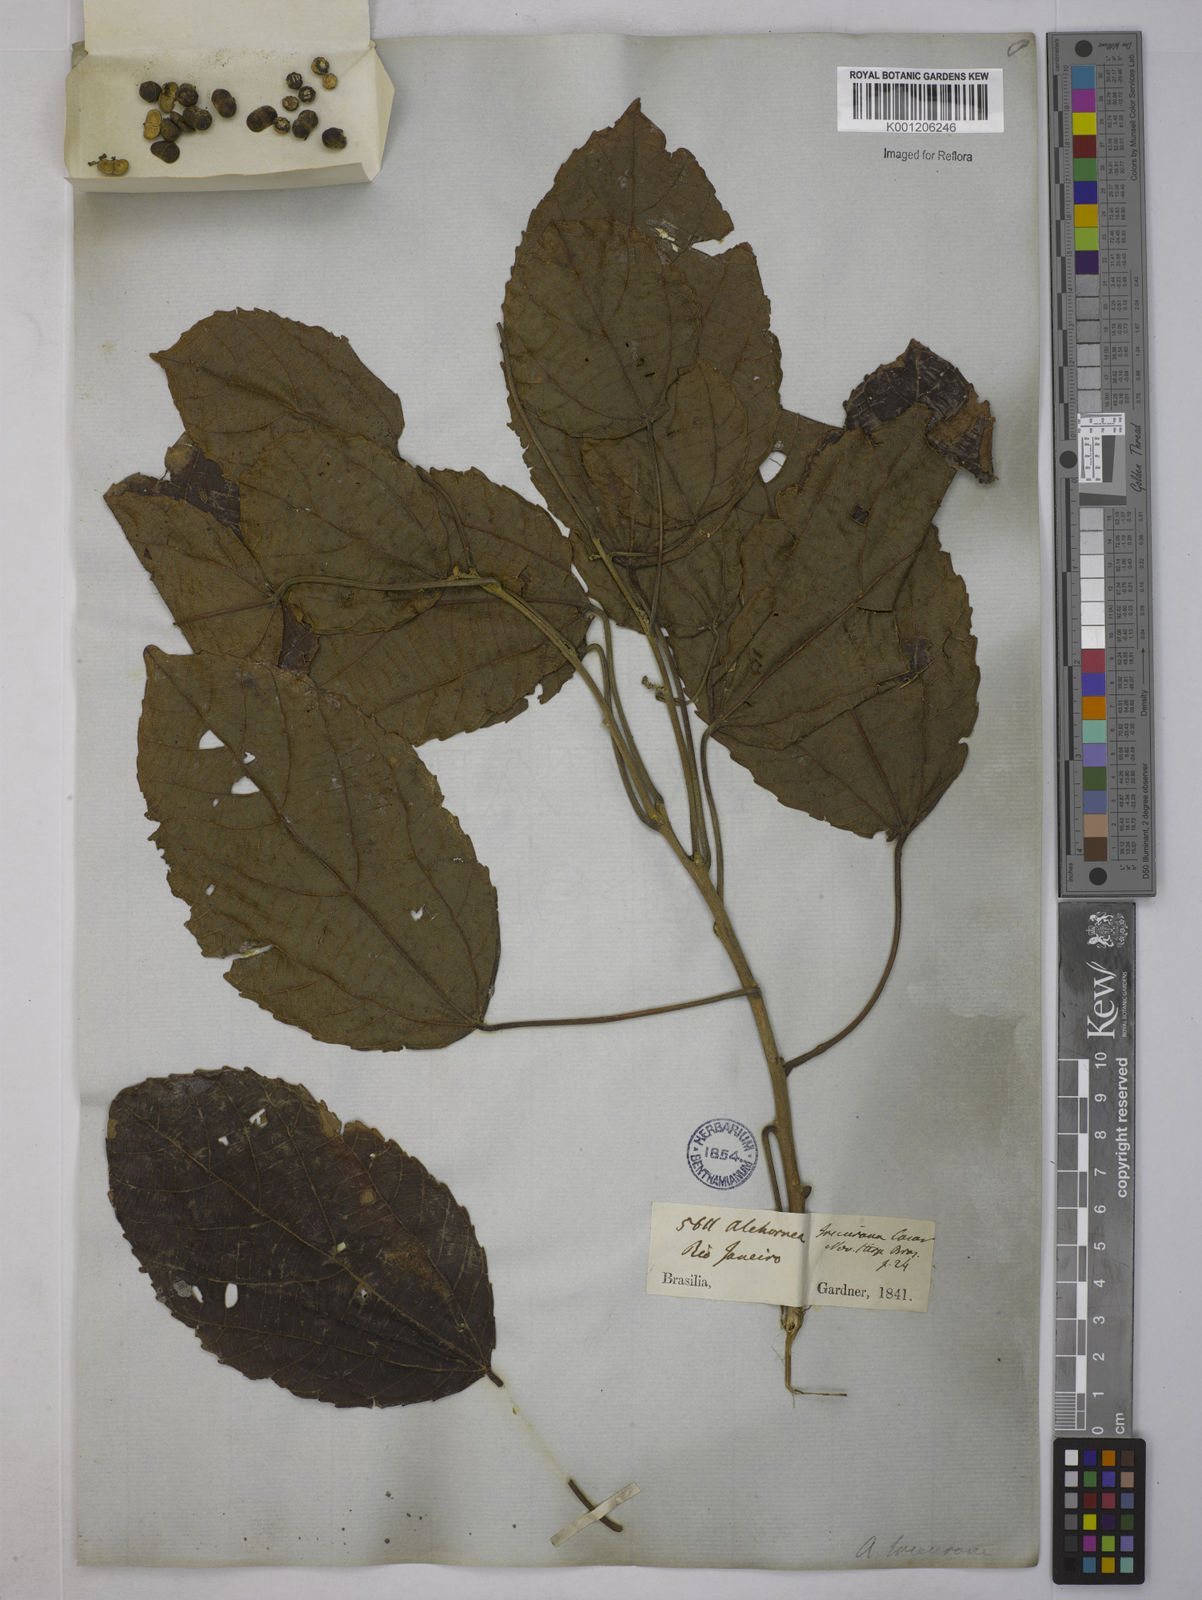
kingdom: Plantae
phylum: Tracheophyta
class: Magnoliopsida
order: Malpighiales
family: Euphorbiaceae
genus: Alchornea
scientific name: Alchornea glandulosa
